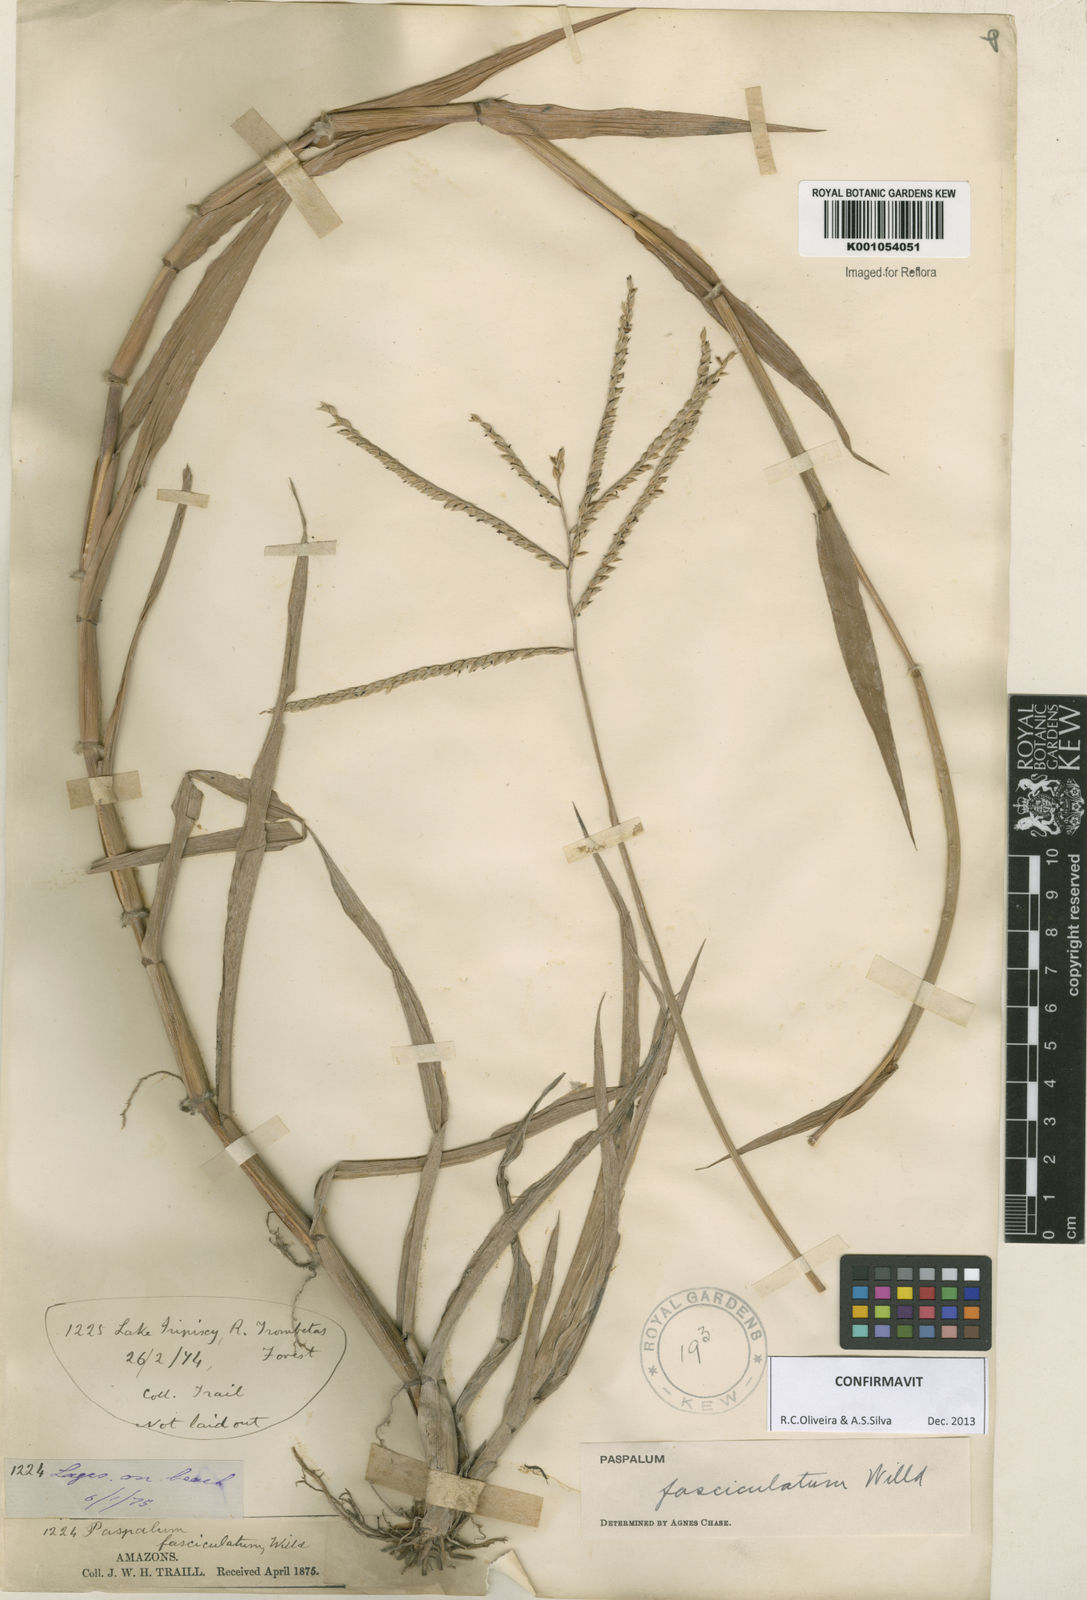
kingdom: Plantae
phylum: Tracheophyta
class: Liliopsida
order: Poales
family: Poaceae
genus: Paspalum
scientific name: Paspalum
